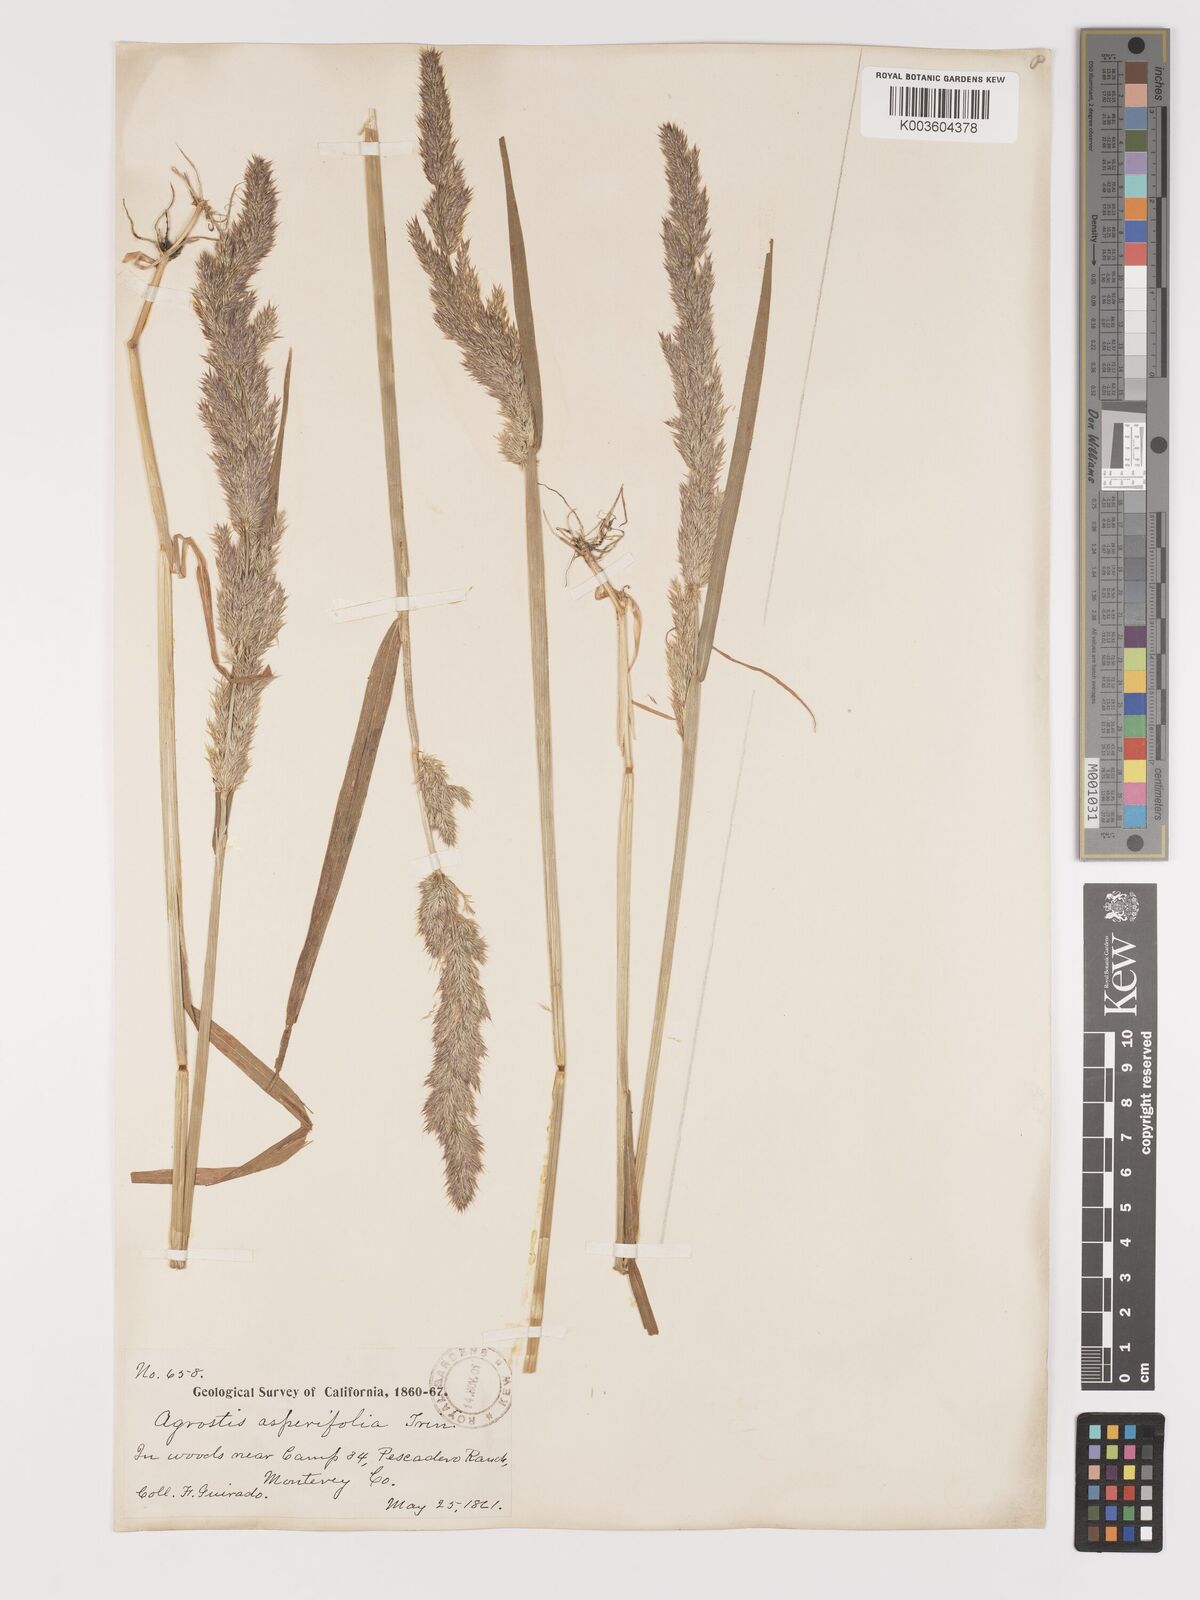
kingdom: Plantae
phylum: Tracheophyta
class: Liliopsida
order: Poales
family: Poaceae
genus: Agrostis
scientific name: Agrostis exarata
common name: Spike bent
